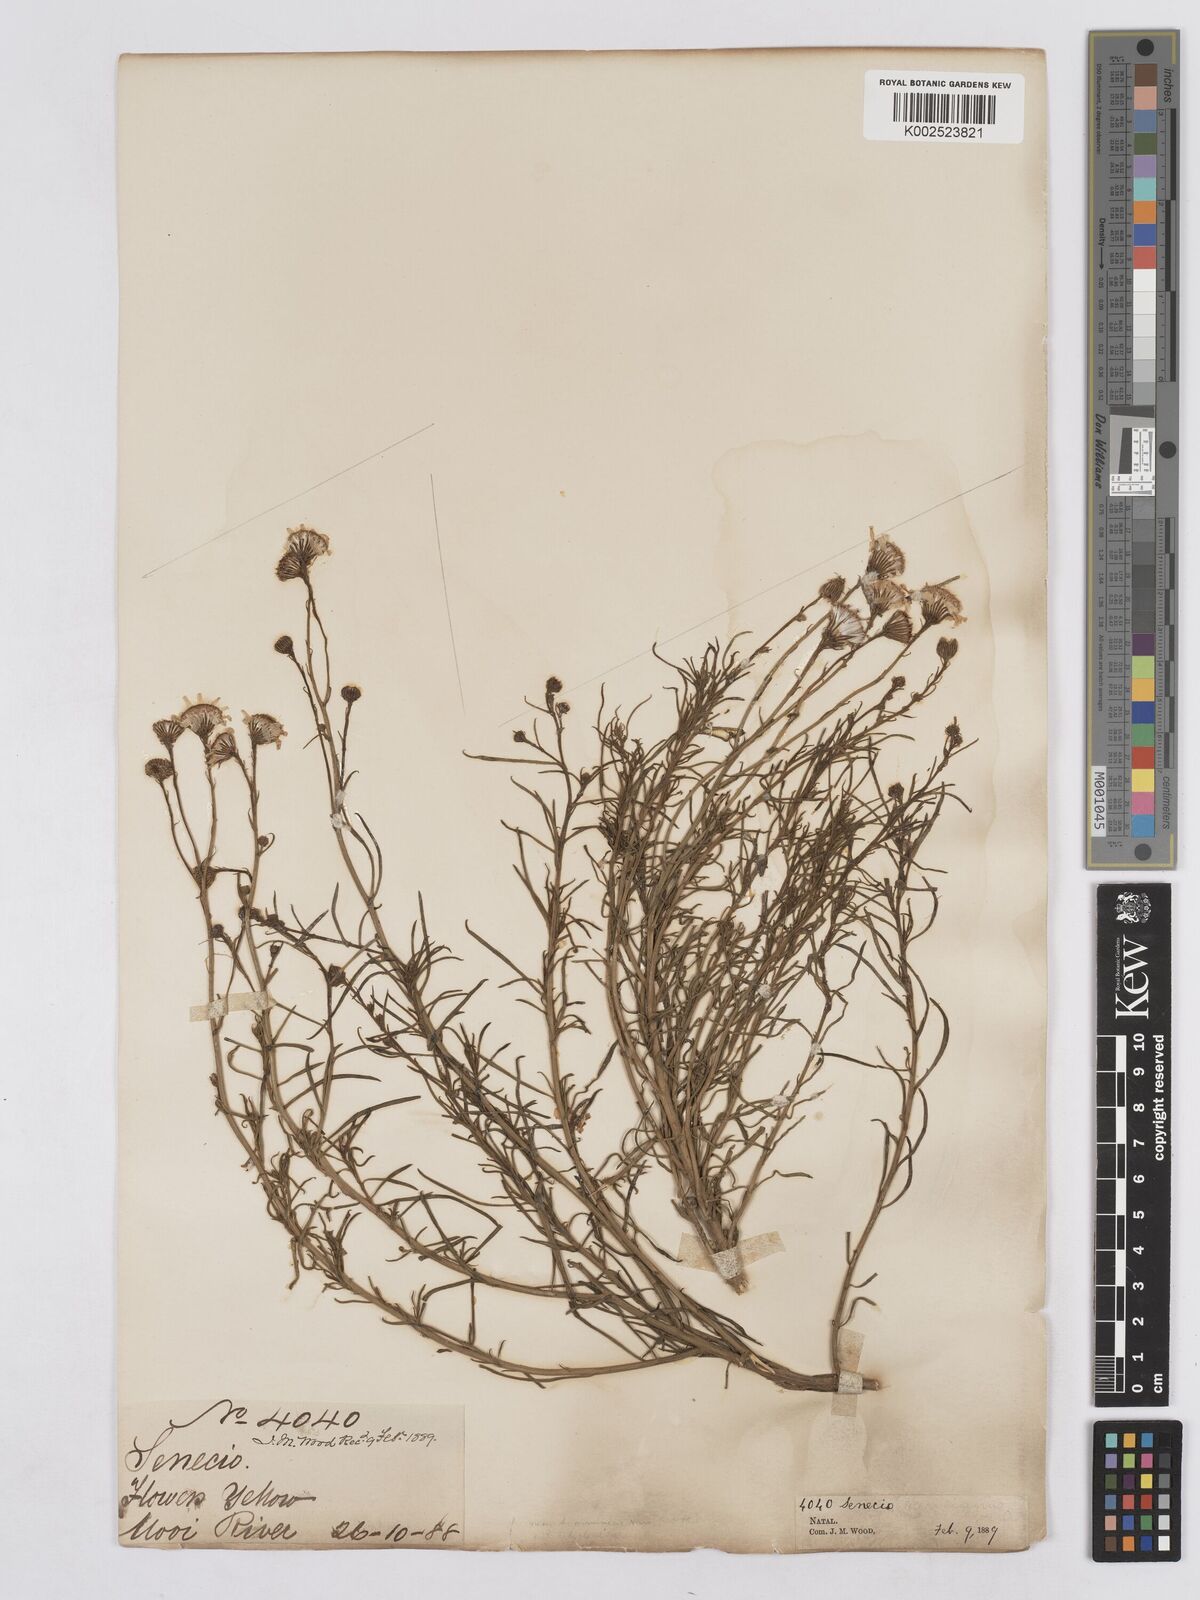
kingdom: Plantae
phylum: Tracheophyta
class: Magnoliopsida
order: Asterales
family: Asteraceae
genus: Senecio
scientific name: Senecio harveyanus
